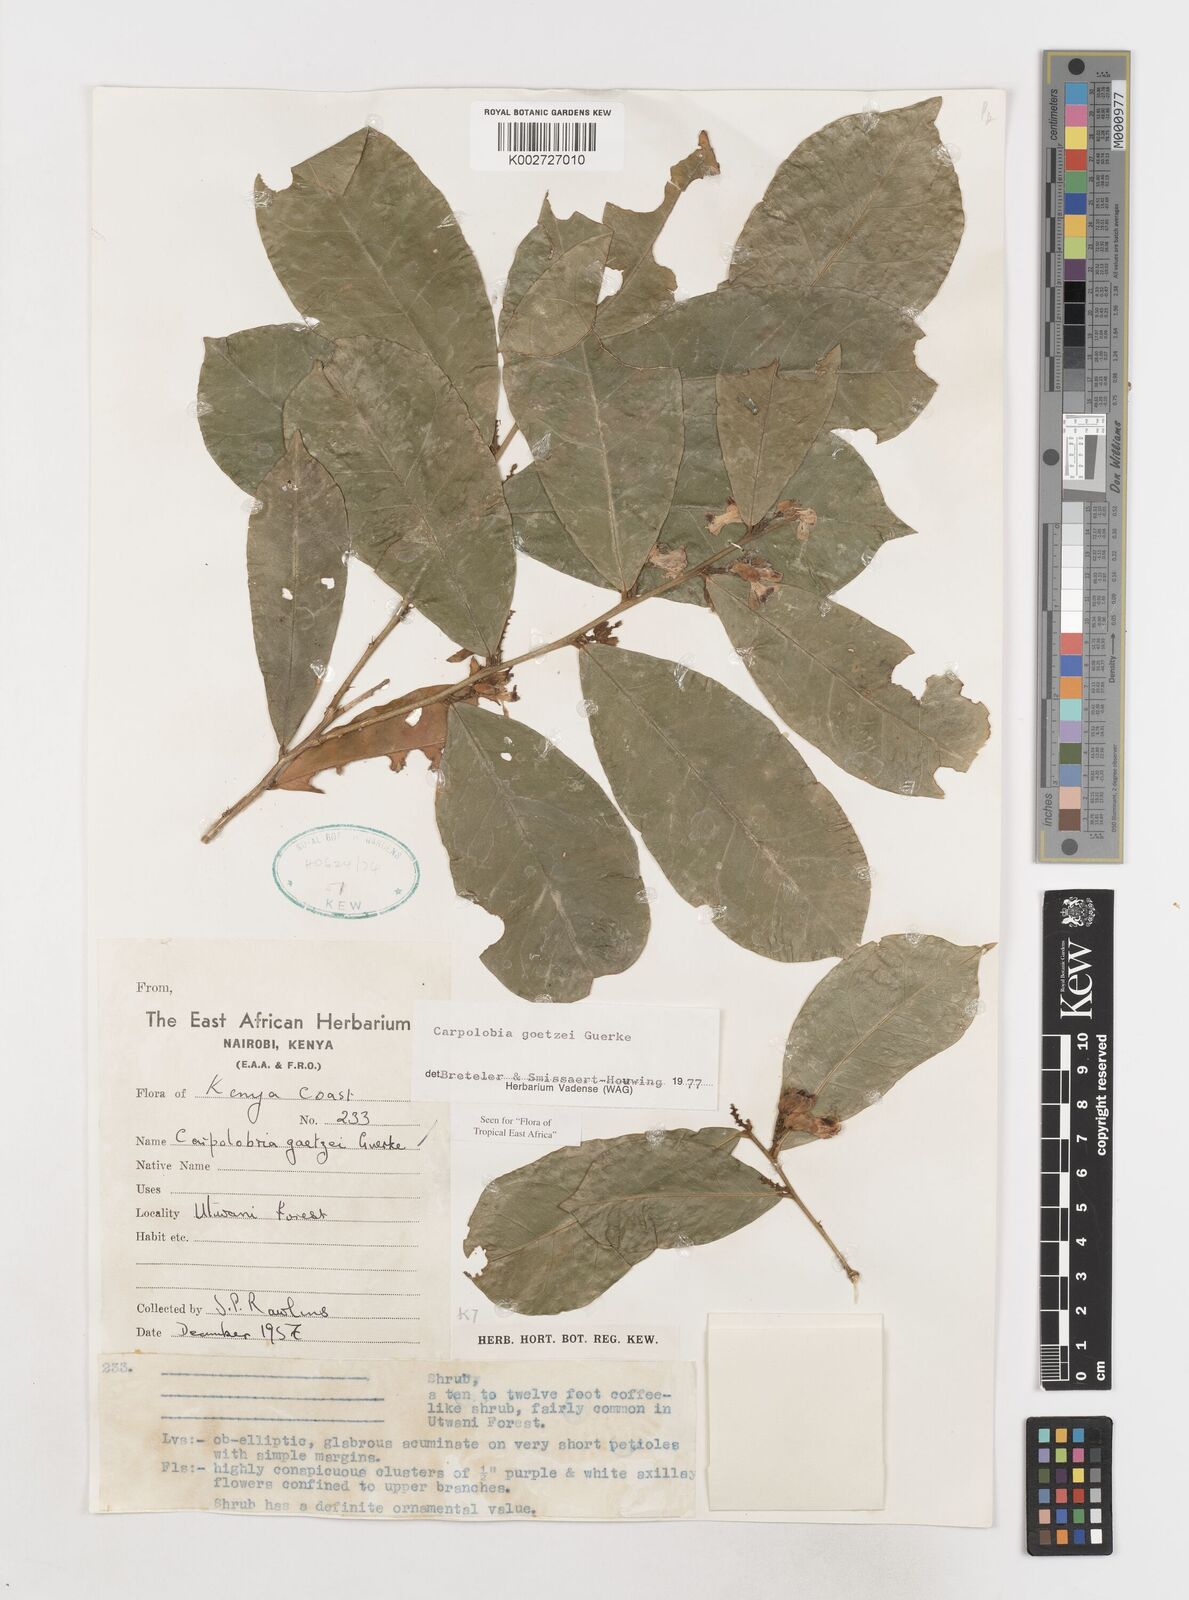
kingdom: Plantae
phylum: Tracheophyta
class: Magnoliopsida
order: Fabales
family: Polygalaceae
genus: Carpolobia
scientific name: Carpolobia goetzei
